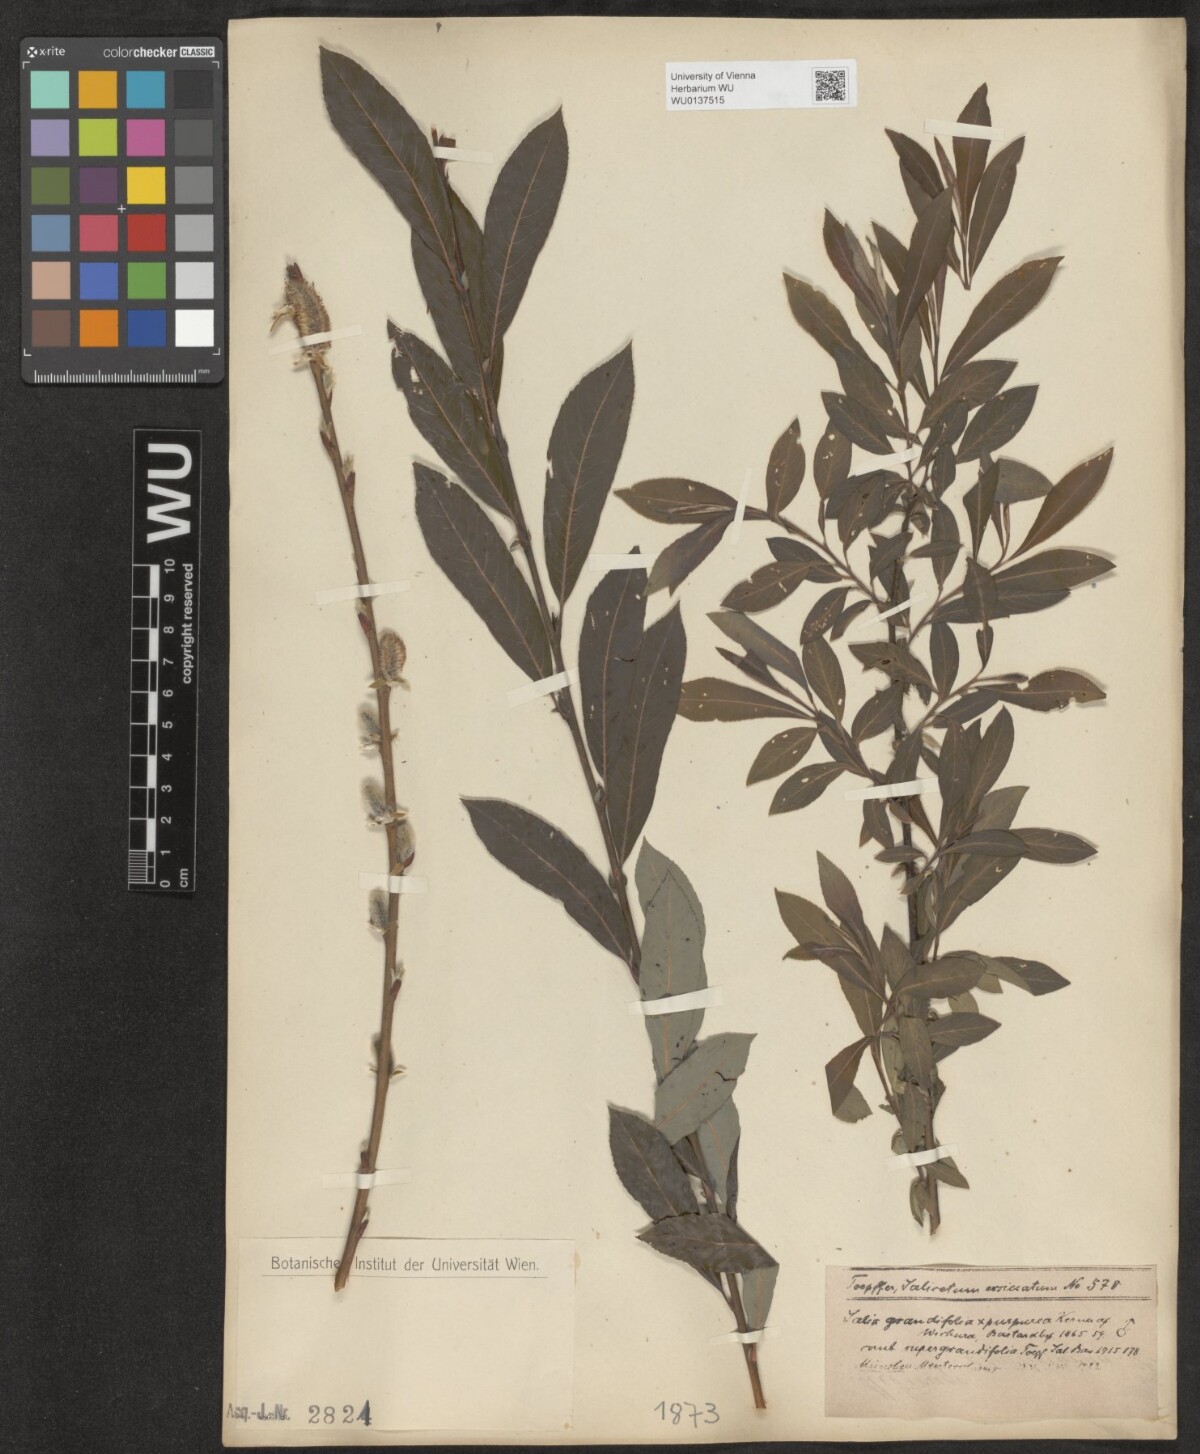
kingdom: Plantae
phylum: Tracheophyta
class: Magnoliopsida
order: Malpighiales
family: Salicaceae
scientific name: Salicaceae
